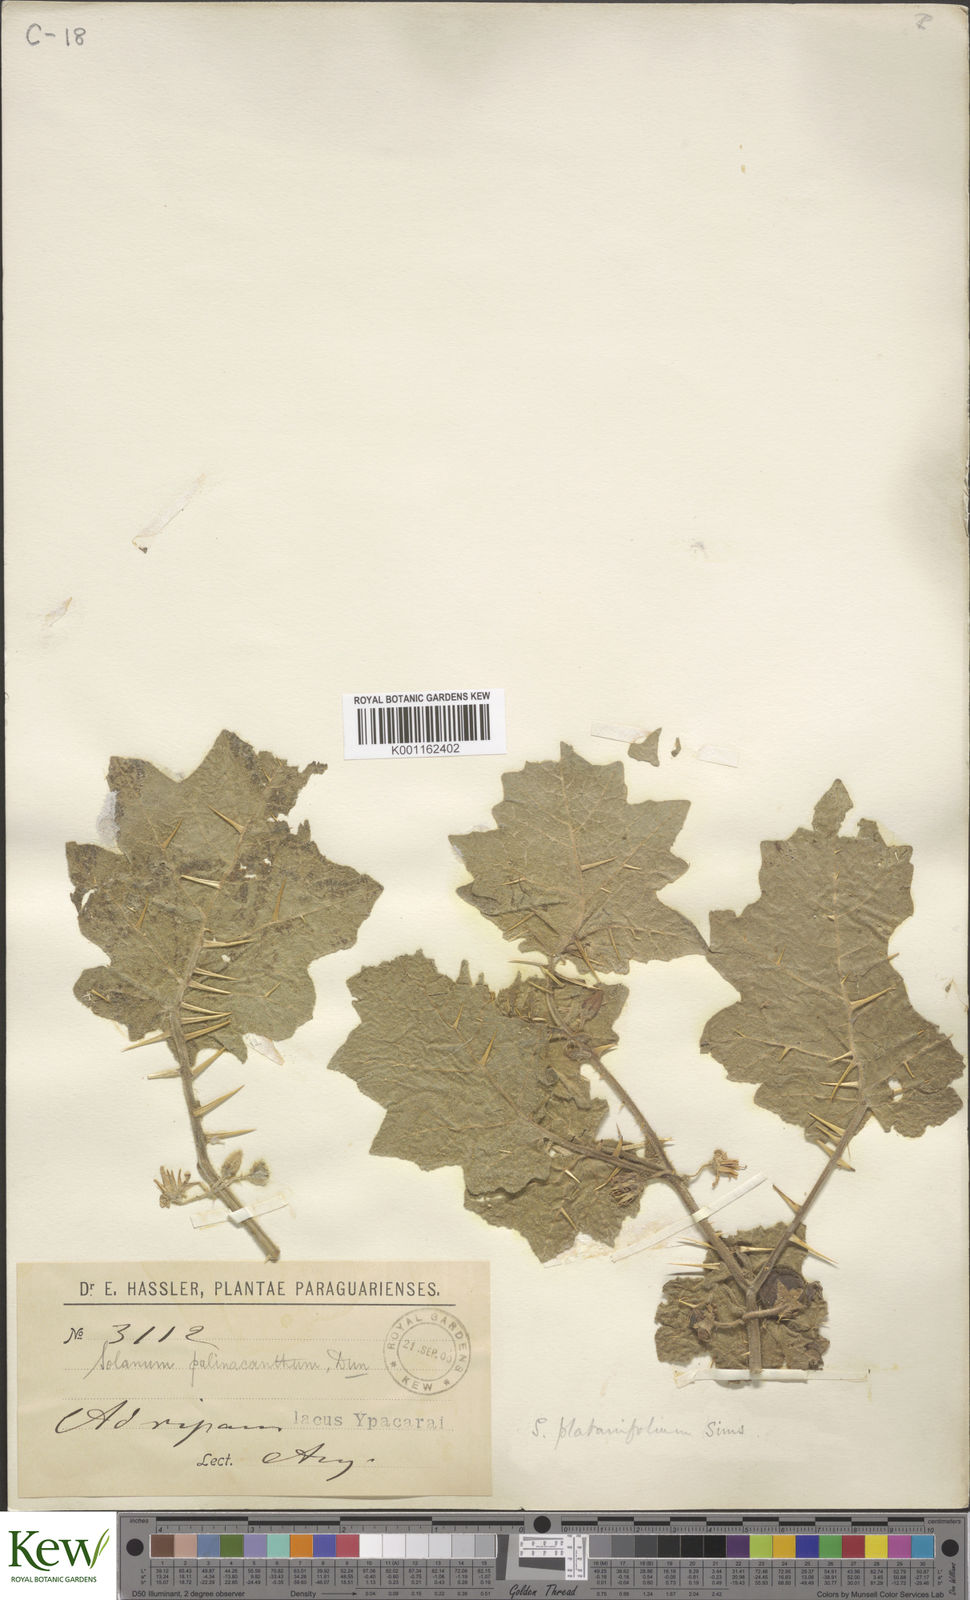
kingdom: Plantae
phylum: Tracheophyta
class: Magnoliopsida
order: Solanales
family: Solanaceae
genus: Solanum
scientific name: Solanum viarum
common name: Tropical soda apple
